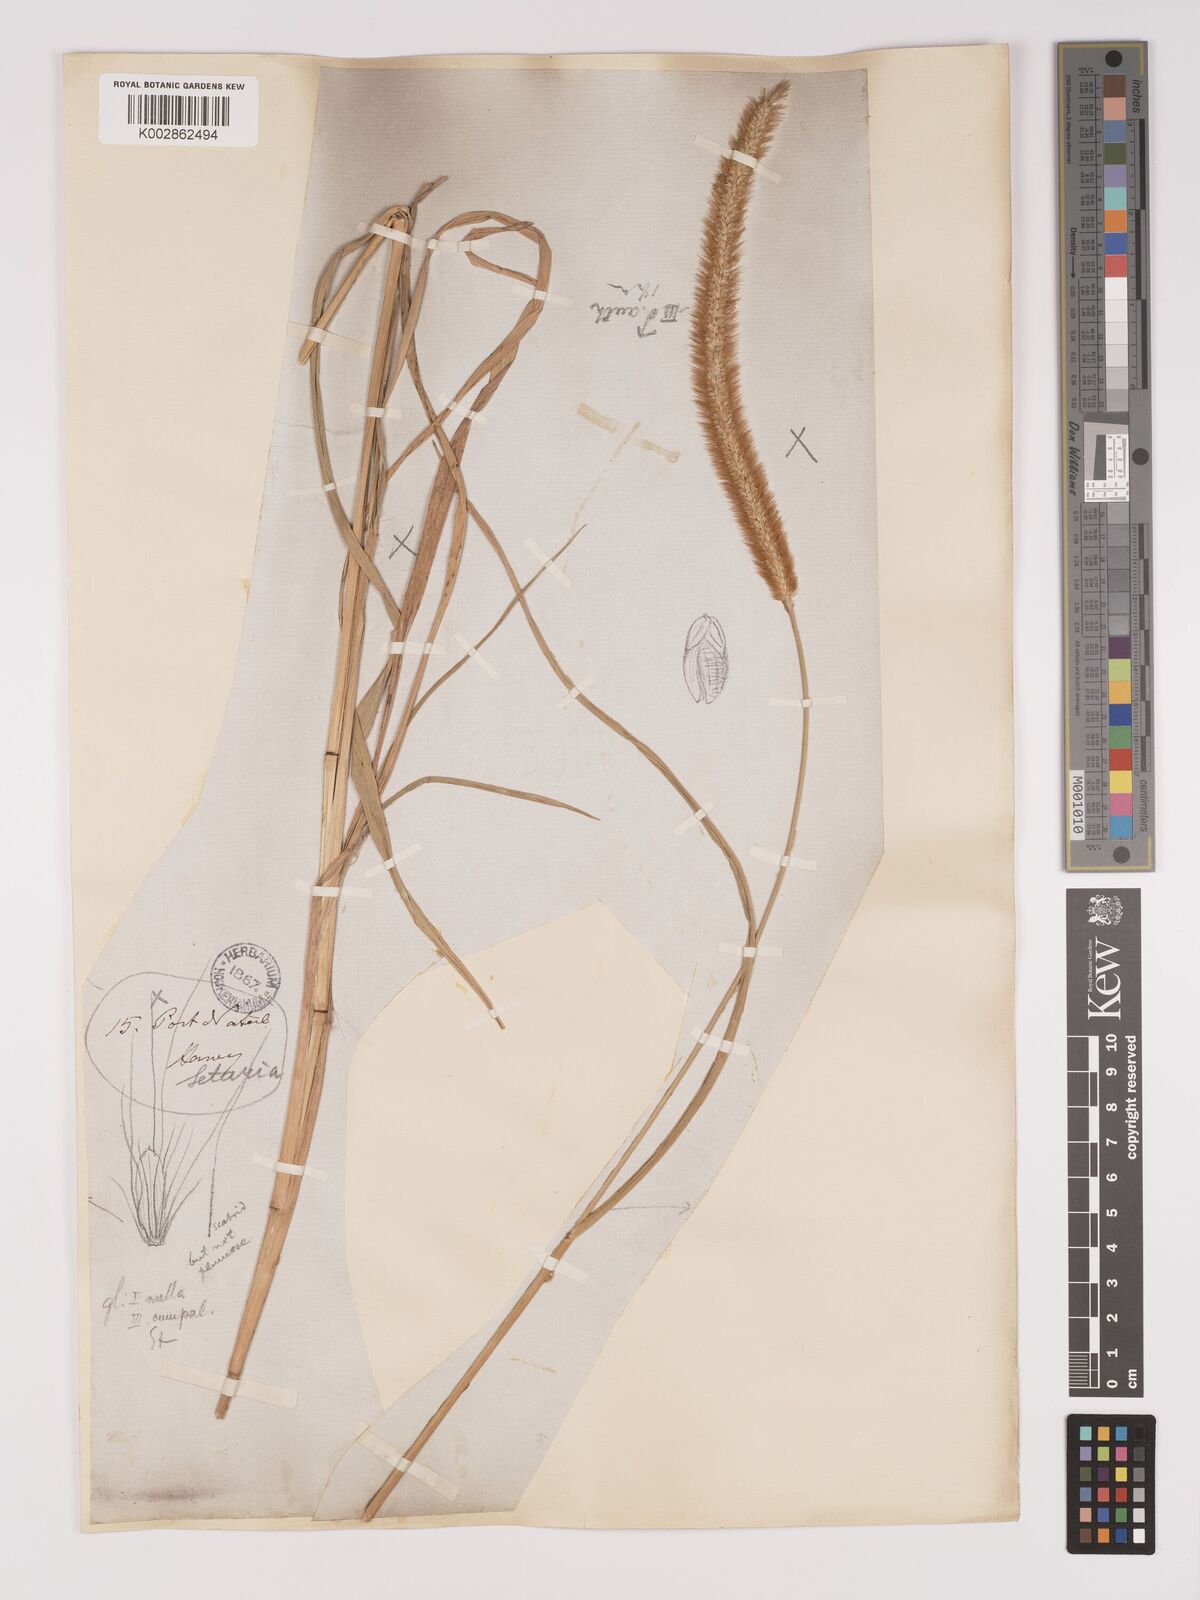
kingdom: Plantae
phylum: Tracheophyta
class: Liliopsida
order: Poales
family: Poaceae
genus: Setaria
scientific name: Setaria sphacelata
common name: African bristlegrass
